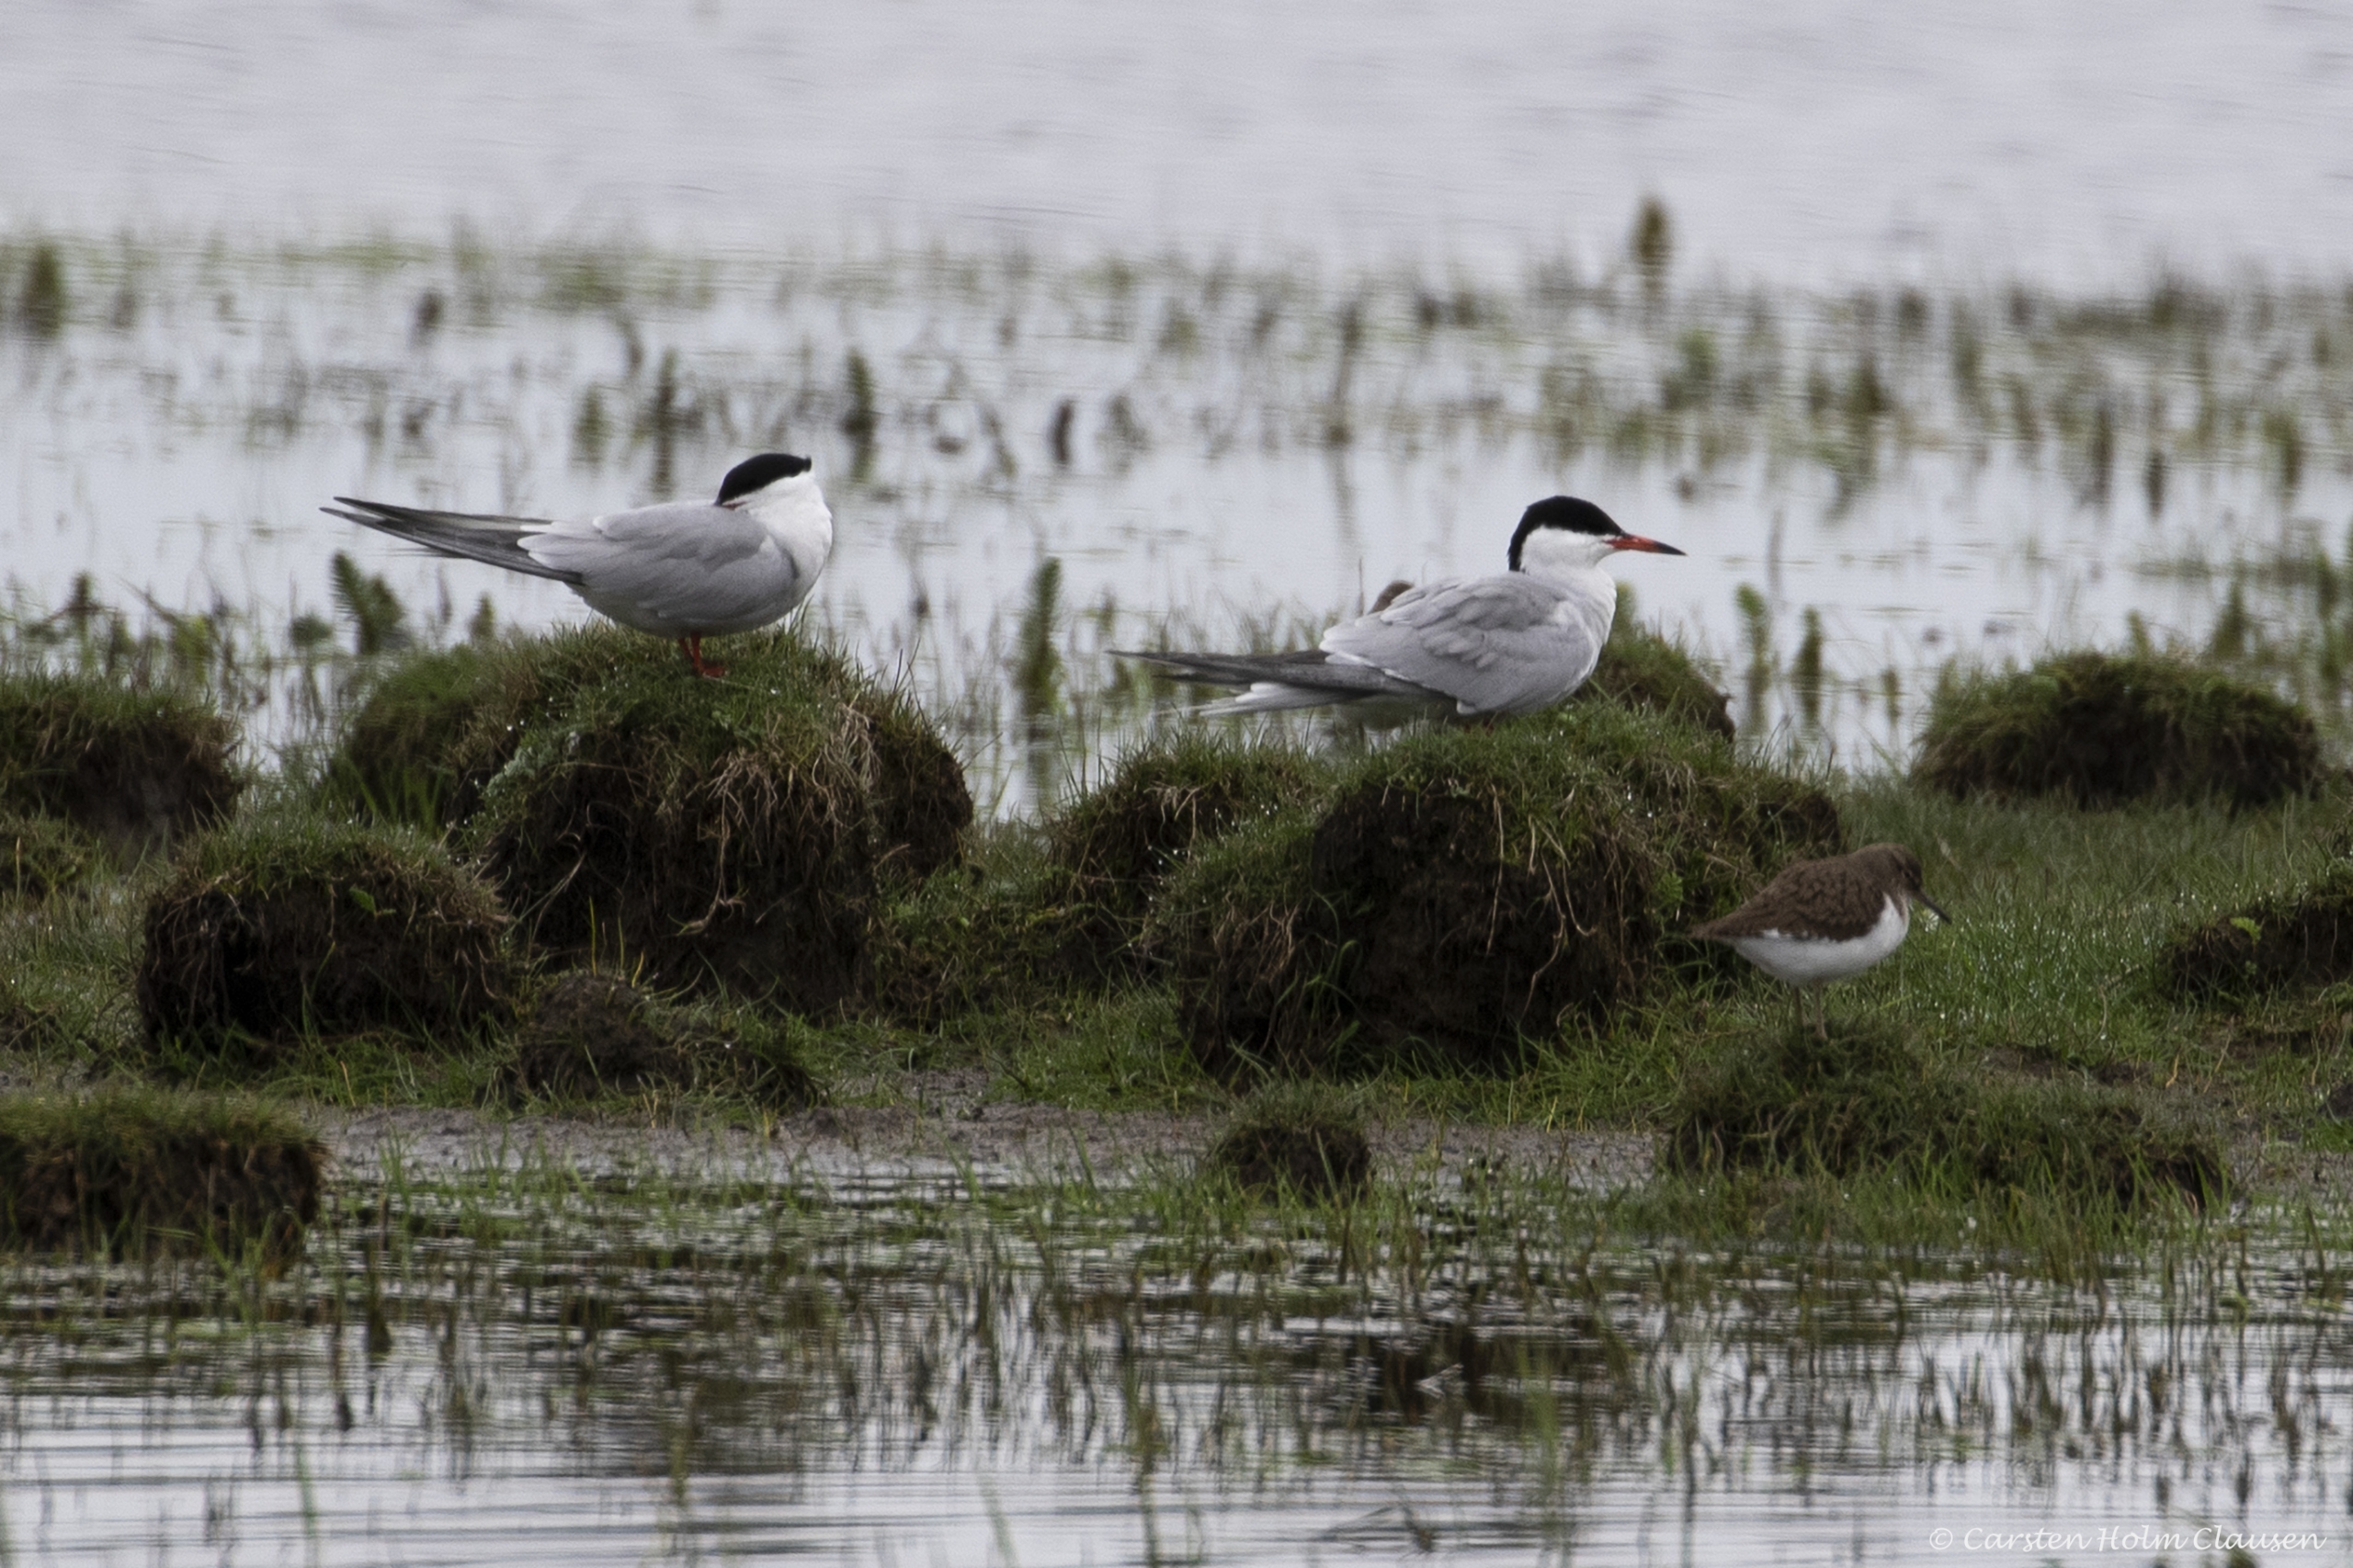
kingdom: Animalia
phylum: Chordata
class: Aves
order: Charadriiformes
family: Laridae
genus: Sterna
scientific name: Sterna hirundo
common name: Fjordterne
